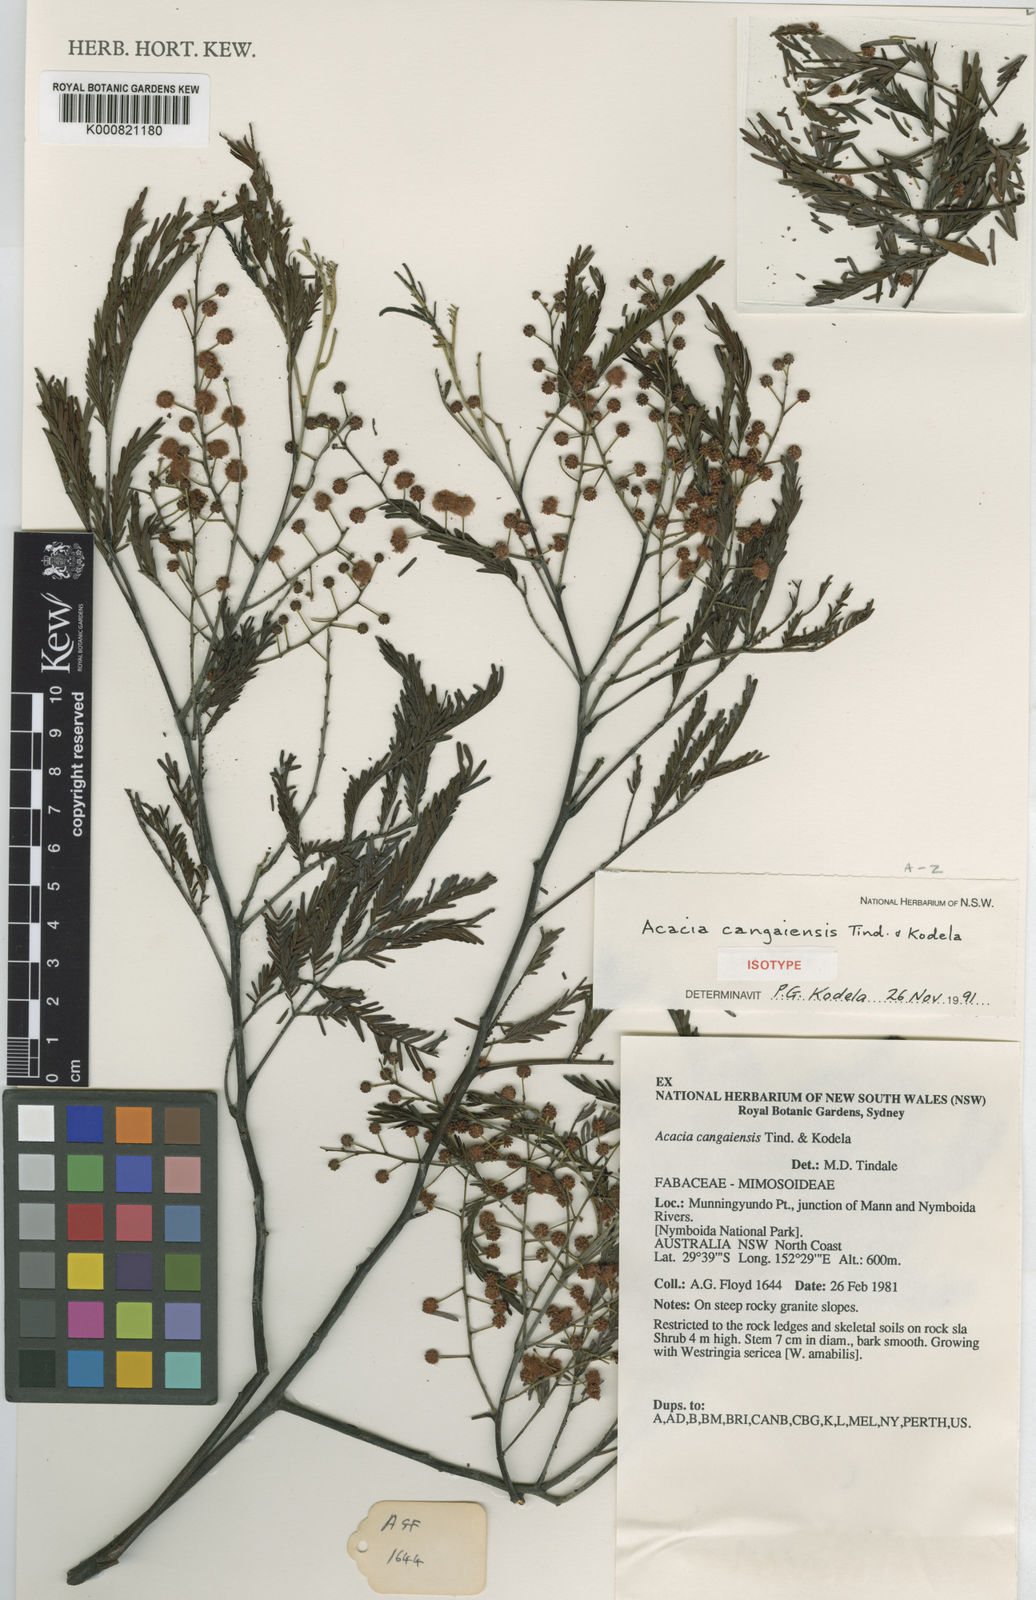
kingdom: Plantae
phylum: Tracheophyta
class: Magnoliopsida
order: Fabales
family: Fabaceae
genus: Acacia
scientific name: Acacia cangaiensis
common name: Cangai wattle
